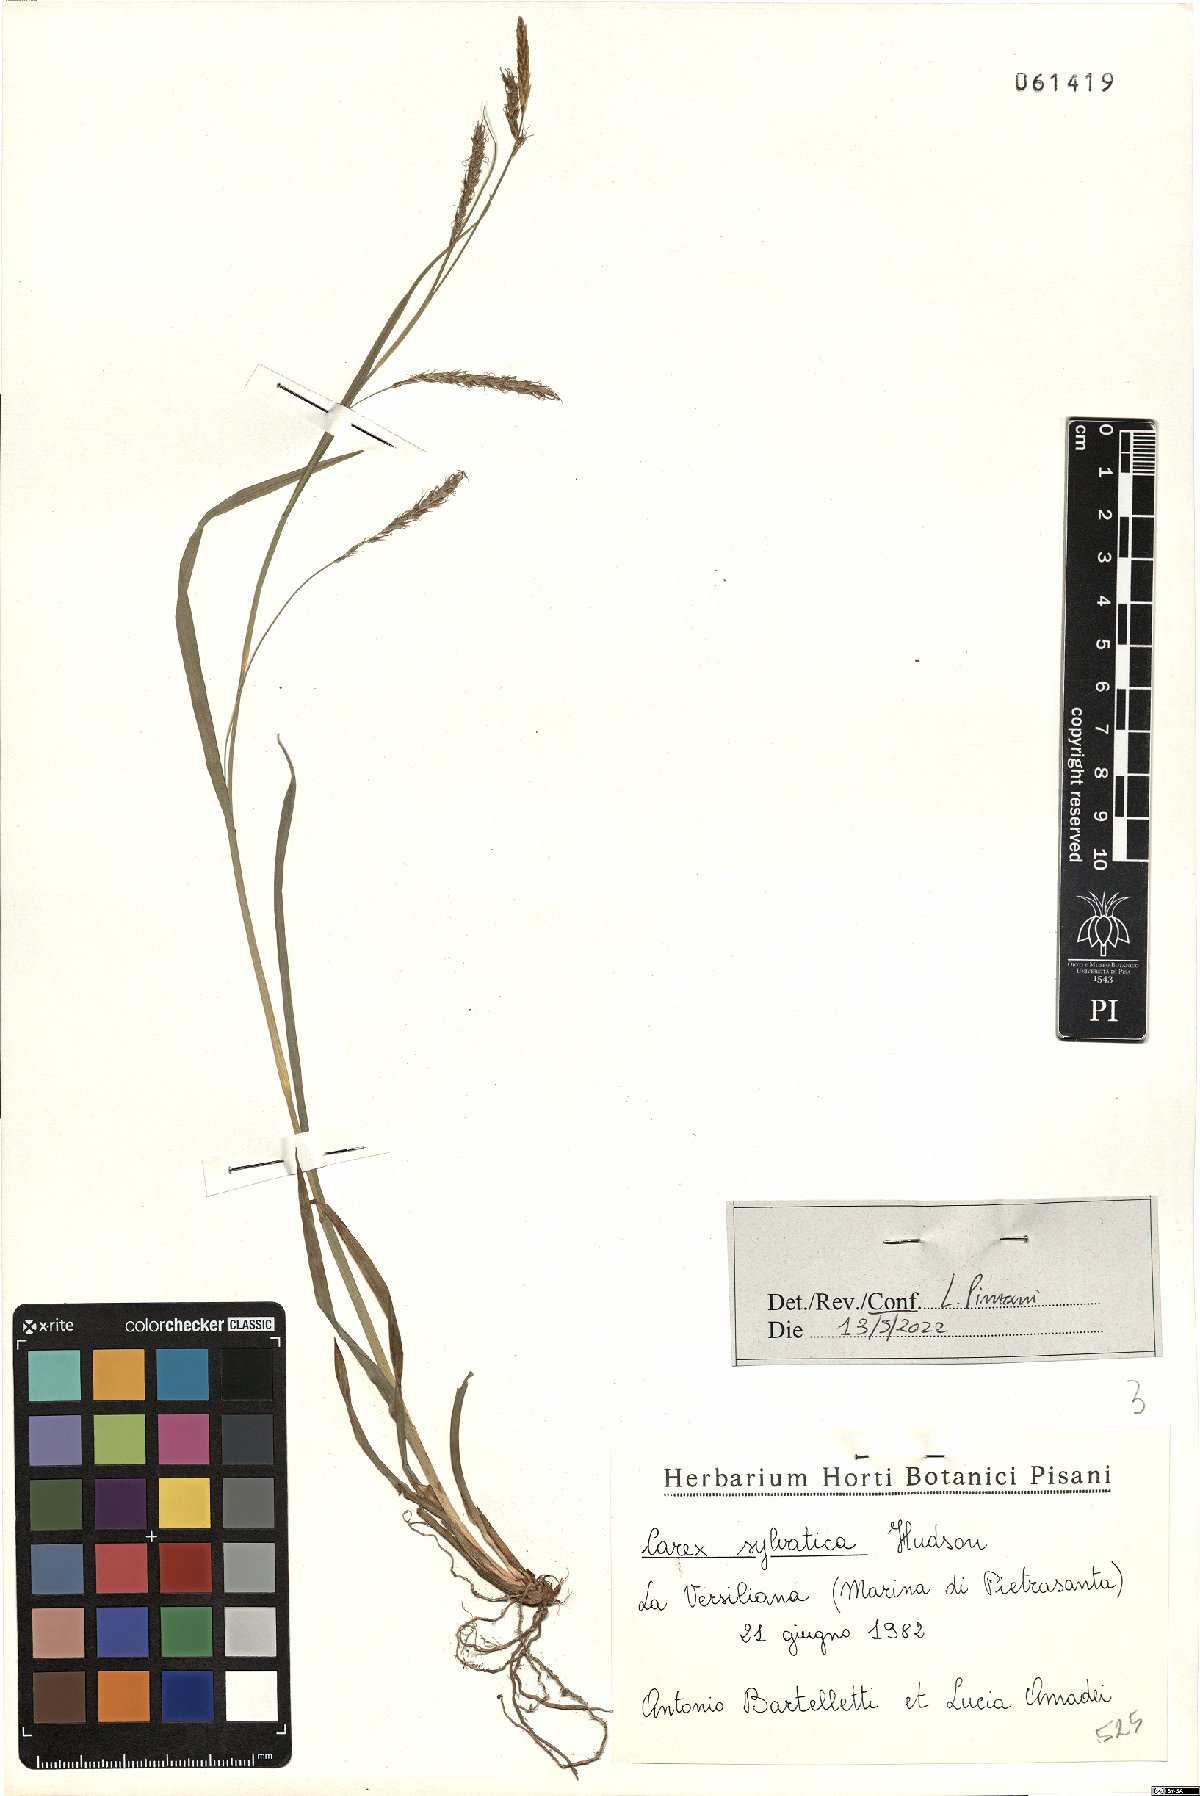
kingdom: Plantae
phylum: Tracheophyta
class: Liliopsida
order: Poales
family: Cyperaceae
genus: Carex
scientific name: Carex sylvatica
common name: Wood-sedge
